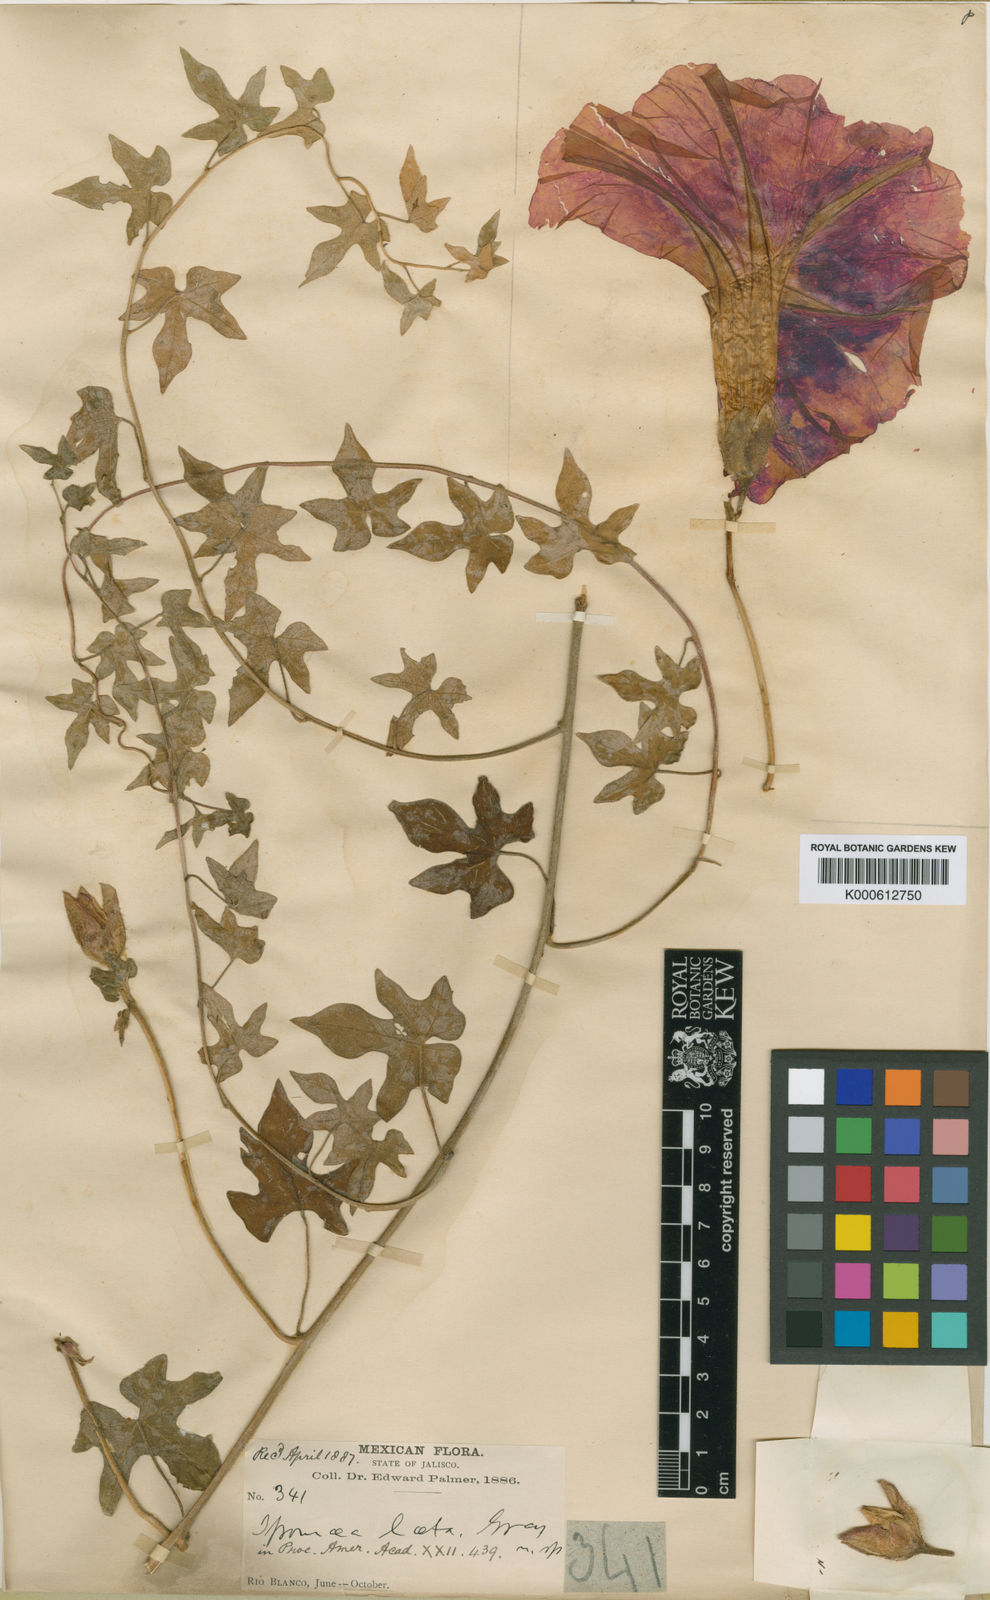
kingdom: Plantae
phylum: Tracheophyta
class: Magnoliopsida
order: Solanales
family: Convolvulaceae
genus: Ipomoea
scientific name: Ipomoea laeta
